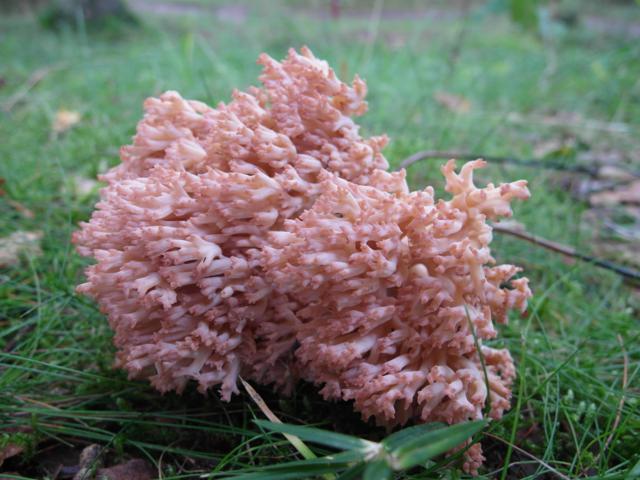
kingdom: Fungi
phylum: Basidiomycota
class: Agaricomycetes
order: Gomphales
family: Gomphaceae
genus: Ramaria
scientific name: Ramaria botrytis
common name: drue-koralsvamp
